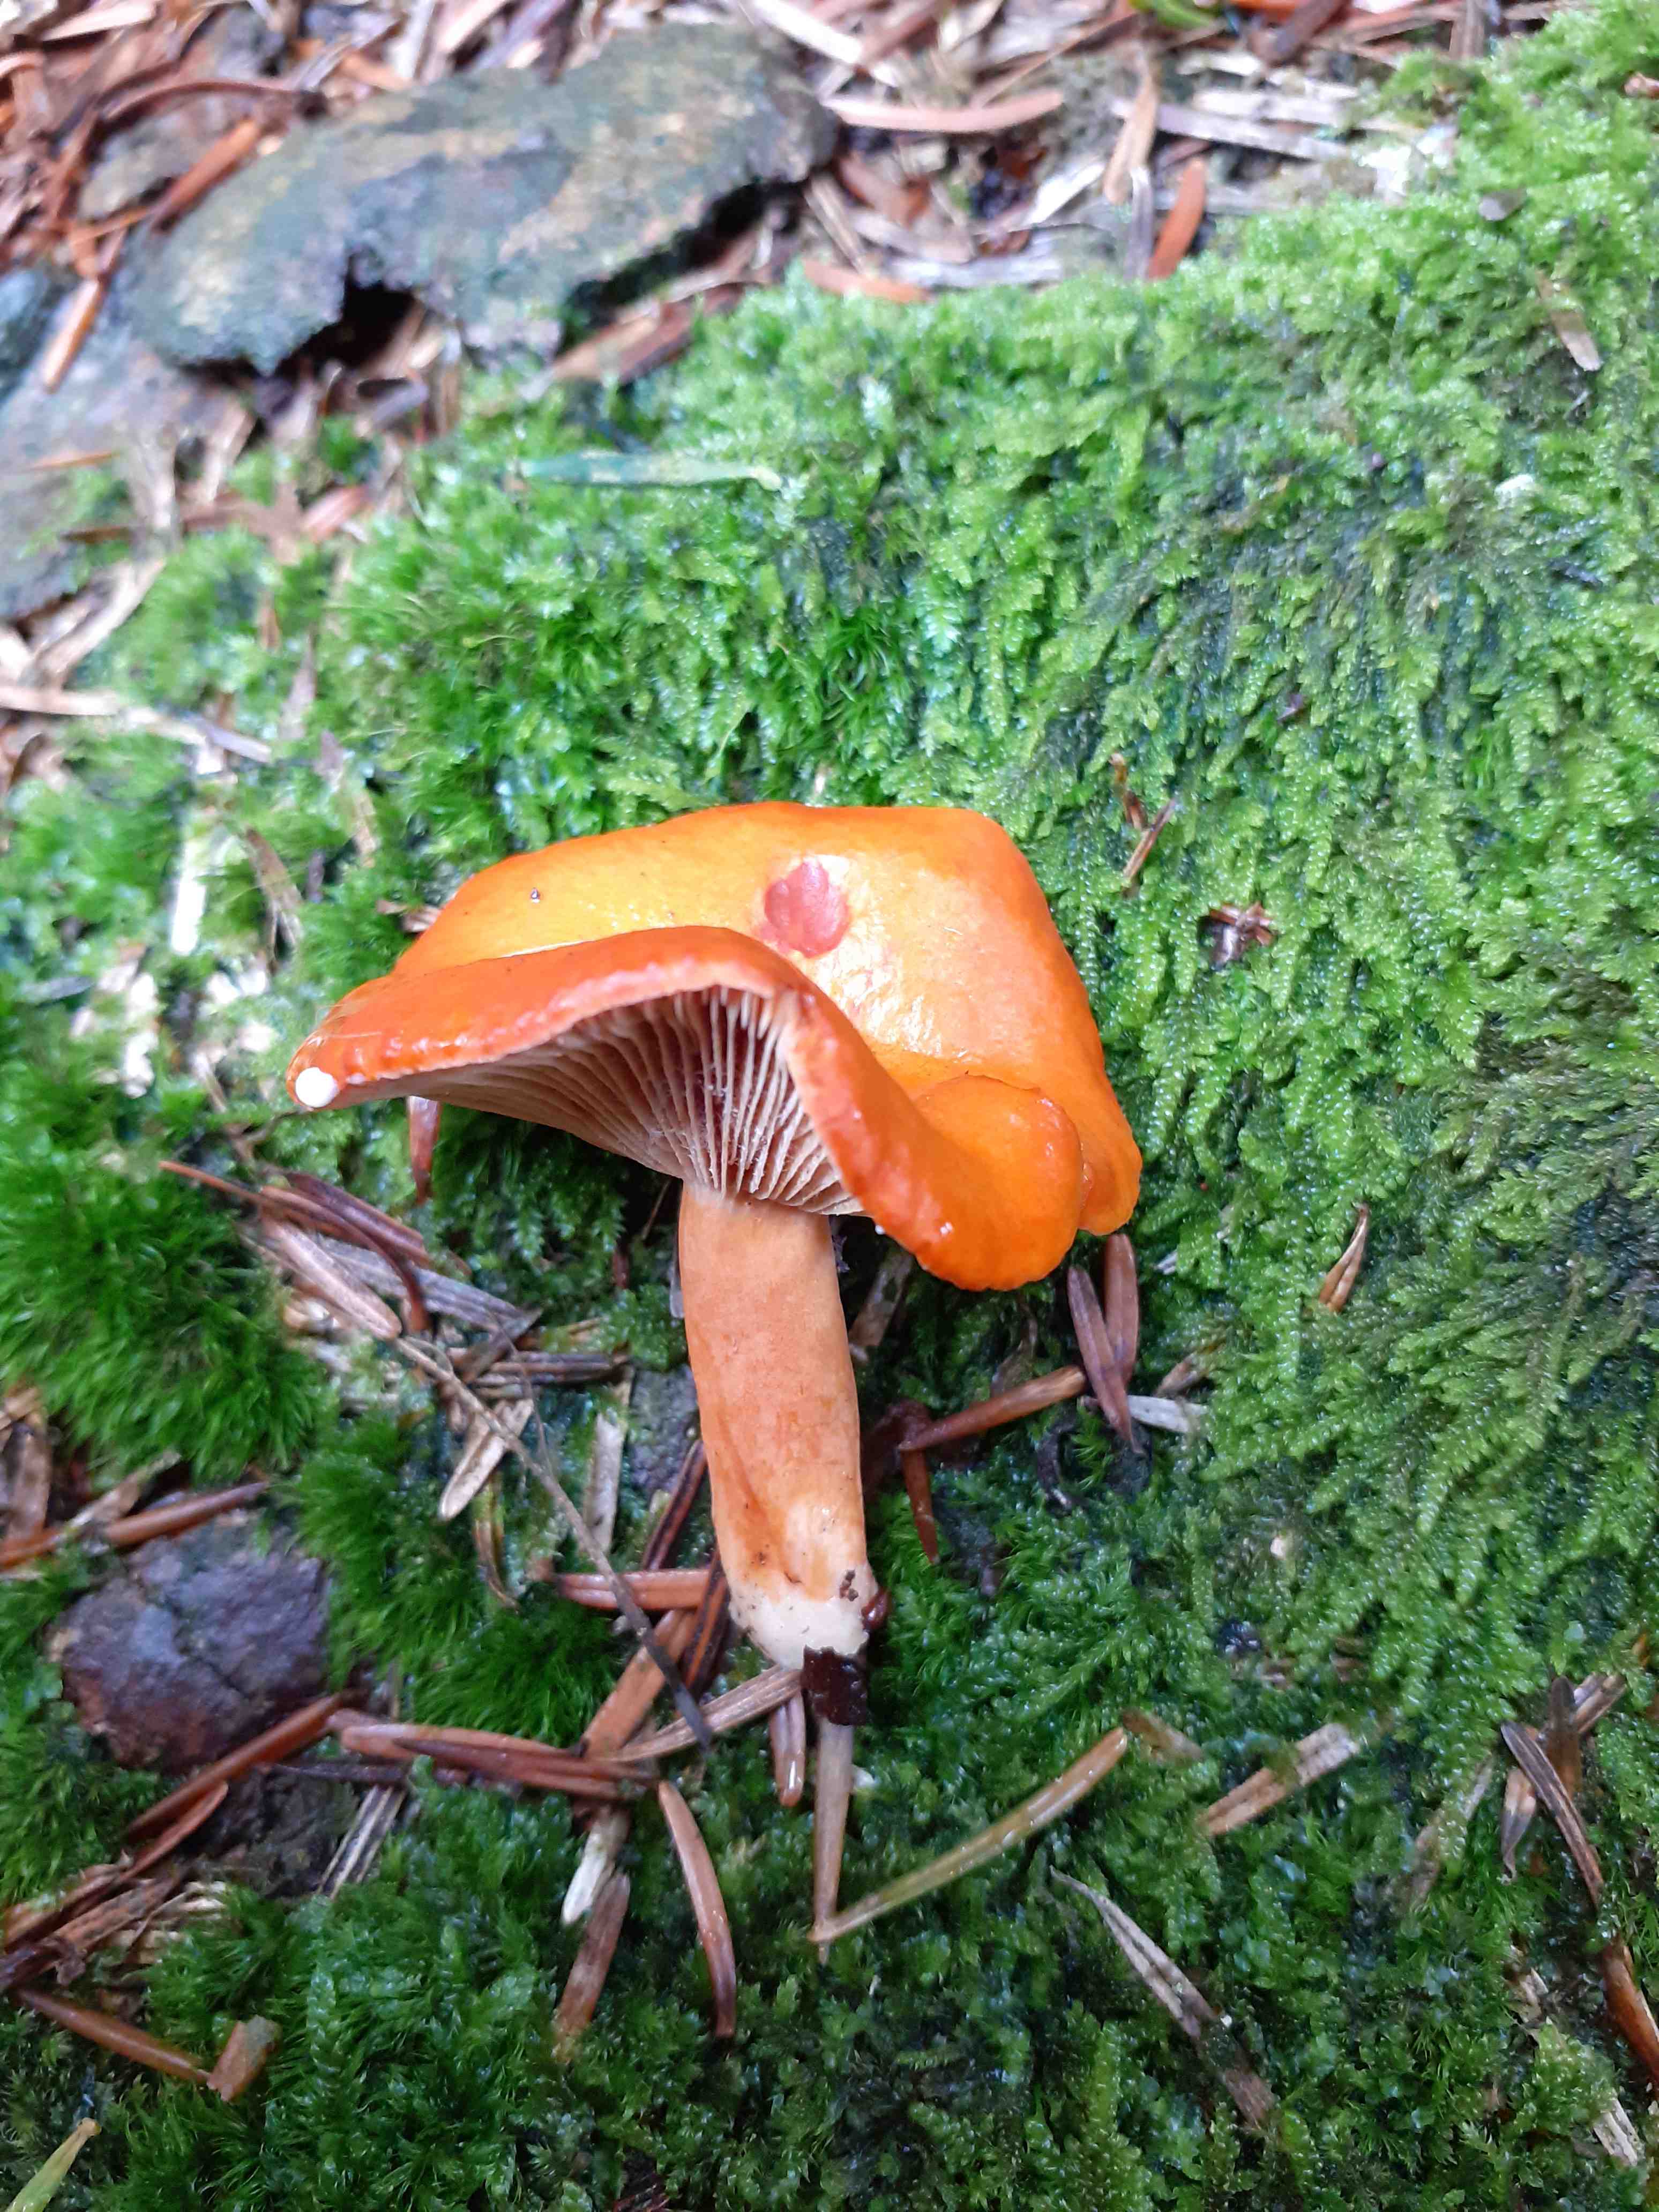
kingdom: Fungi
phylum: Basidiomycota
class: Agaricomycetes
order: Russulales
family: Russulaceae
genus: Lactarius
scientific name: Lactarius aurantiacus
